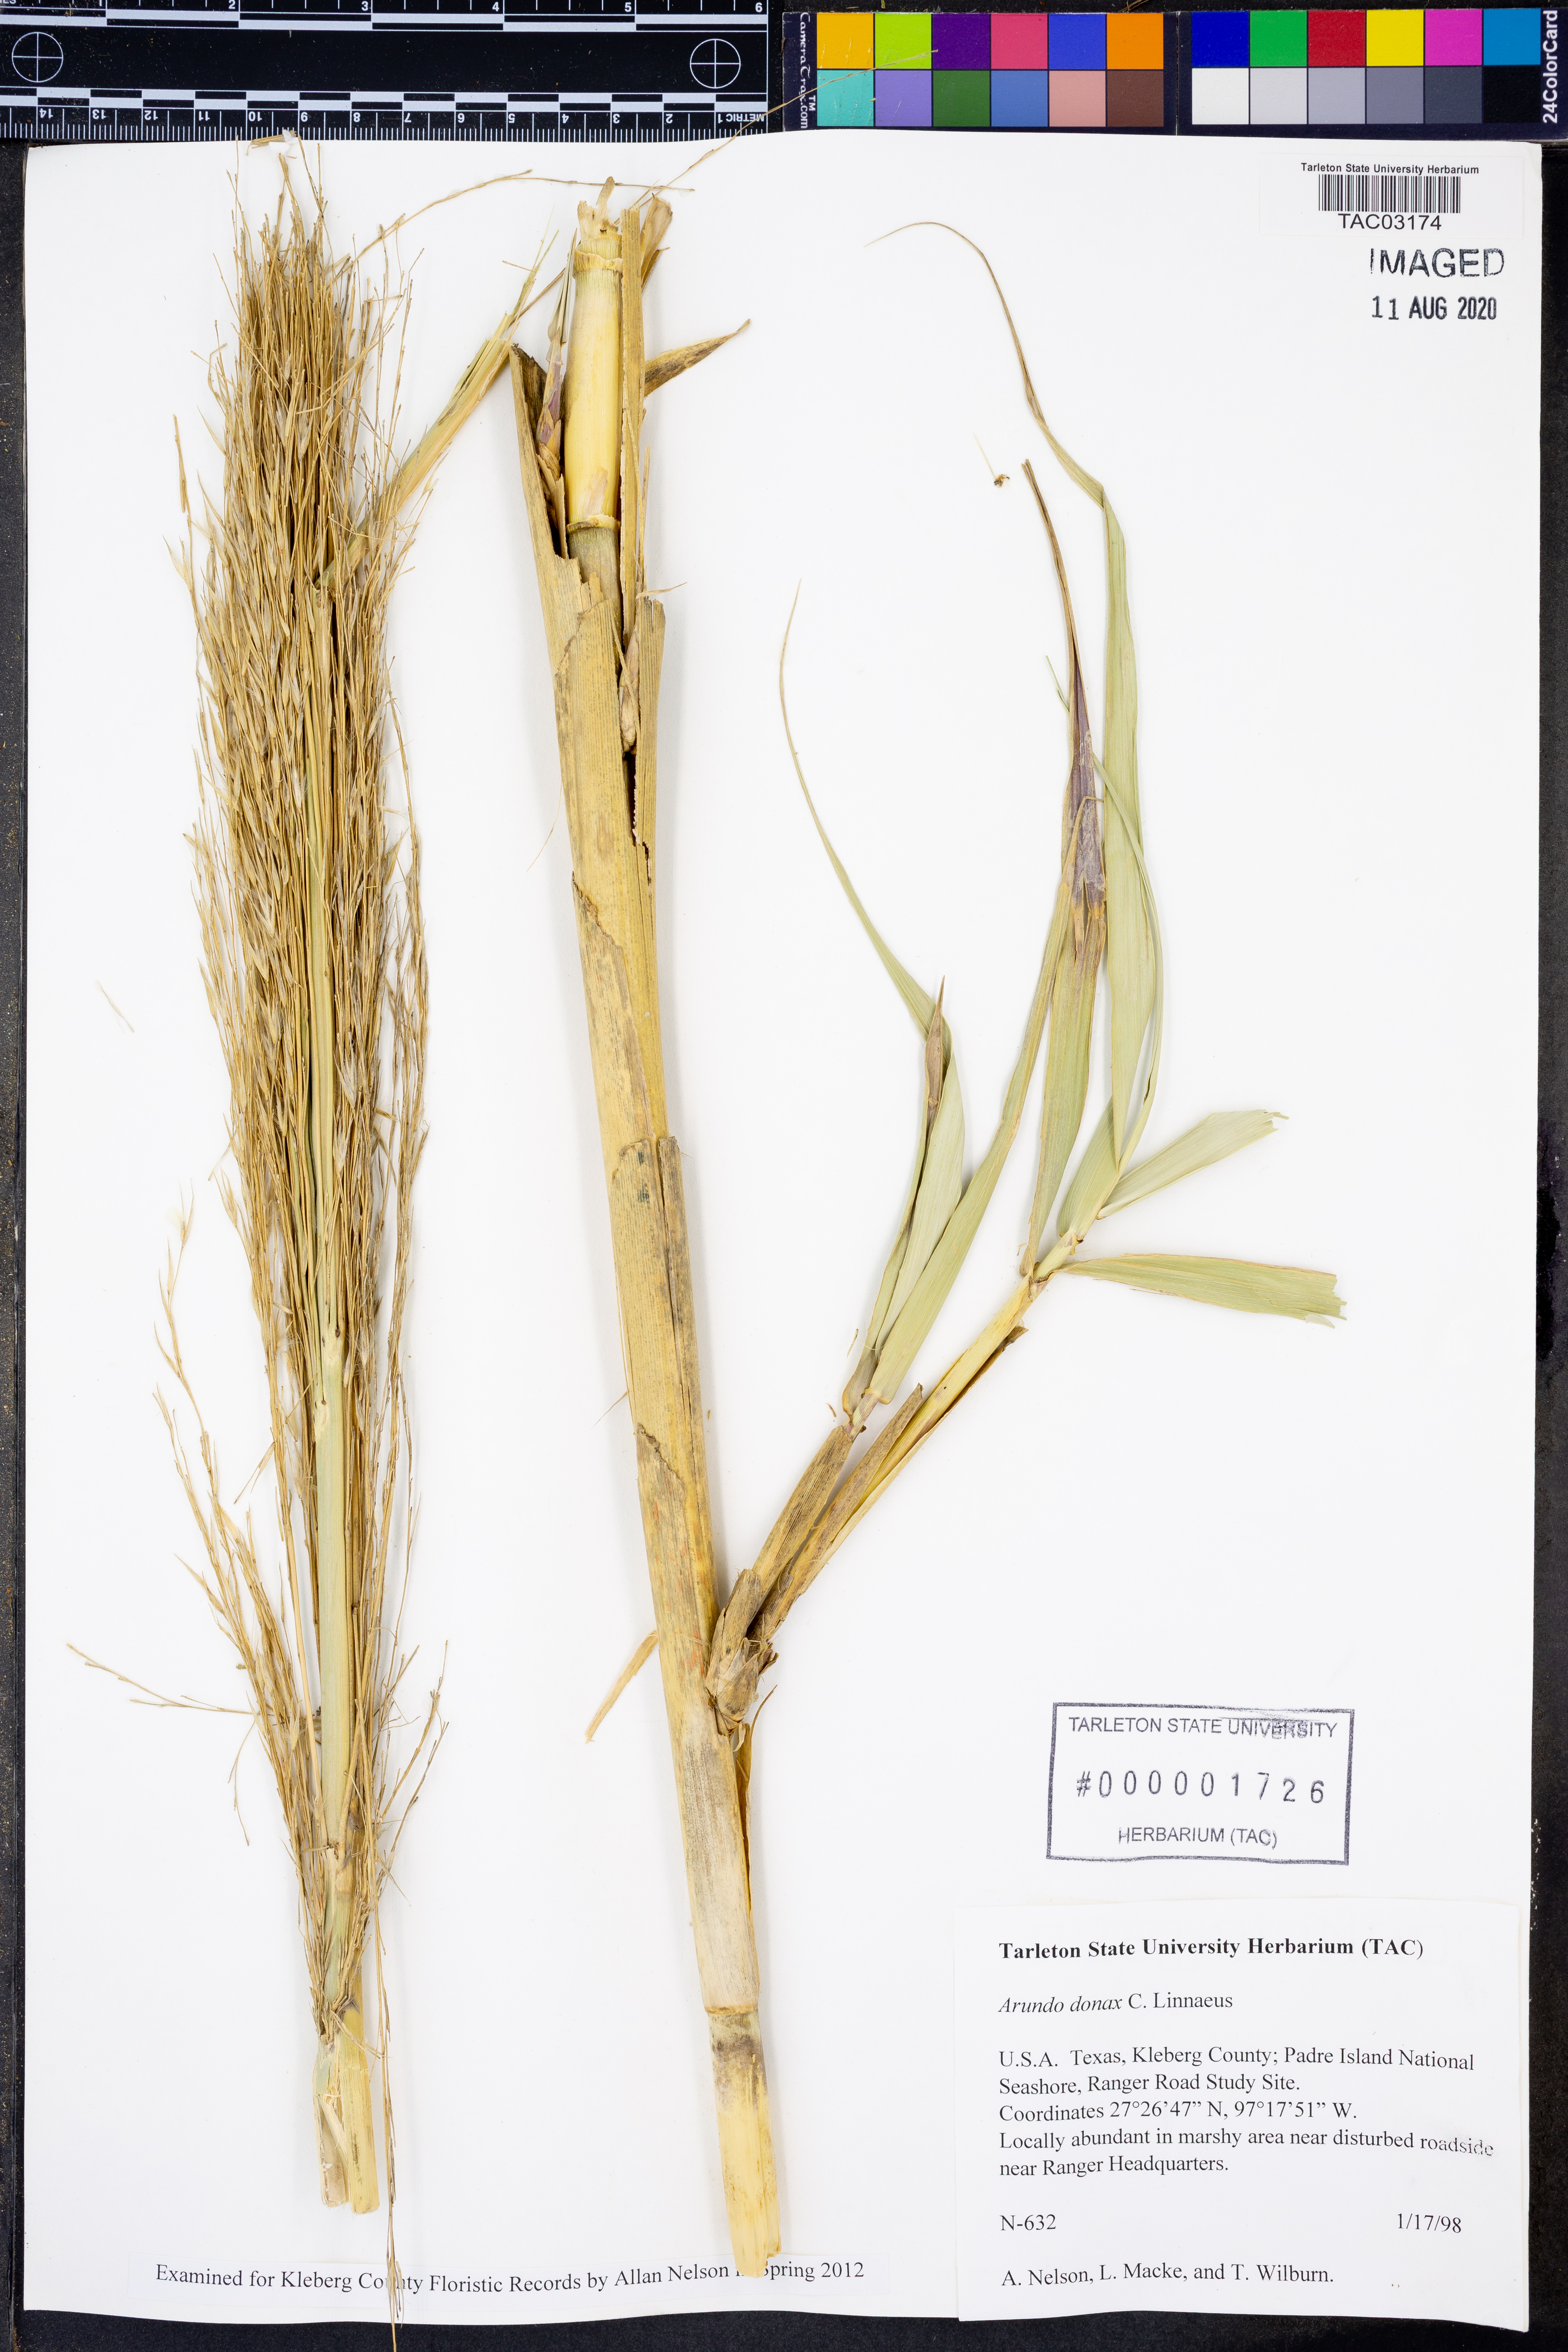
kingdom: Plantae
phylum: Tracheophyta
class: Liliopsida
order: Poales
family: Poaceae
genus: Arundo
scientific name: Arundo donax
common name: Giant reed
